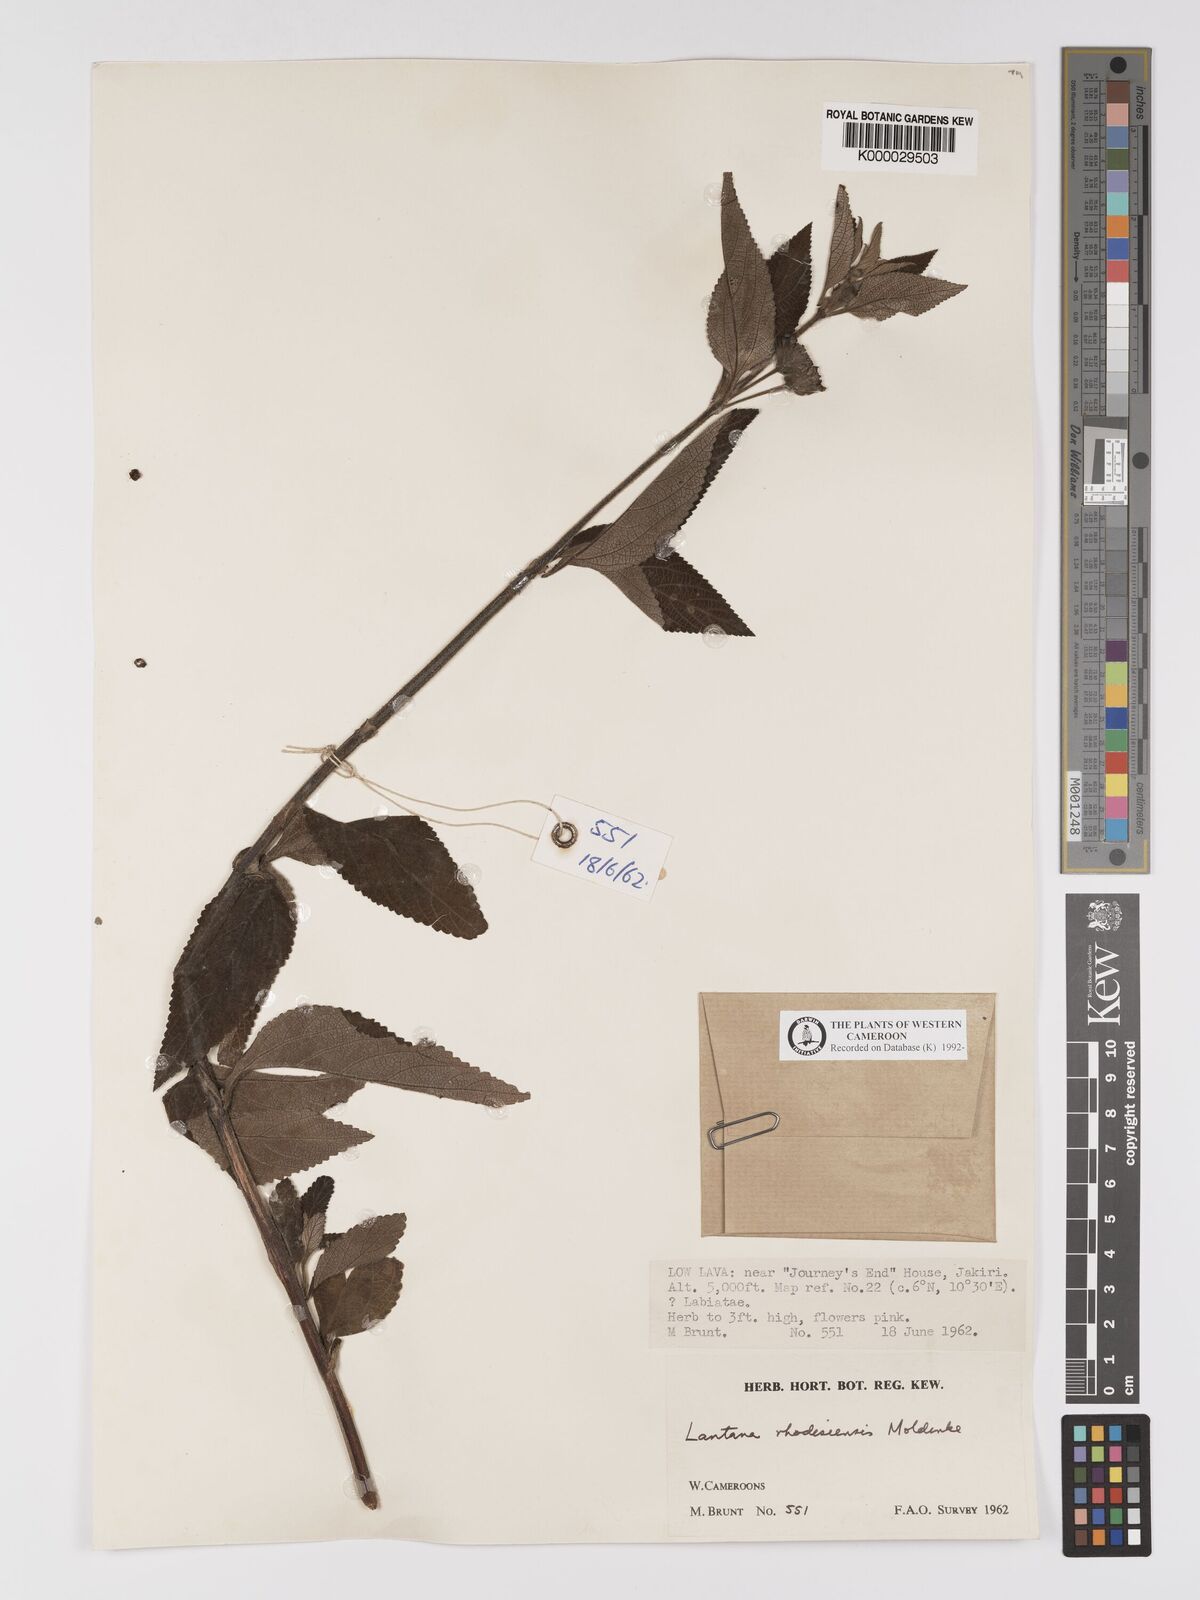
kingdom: Plantae
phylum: Tracheophyta
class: Magnoliopsida
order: Lamiales
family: Verbenaceae
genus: Lantana
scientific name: Lantana ukambensis
